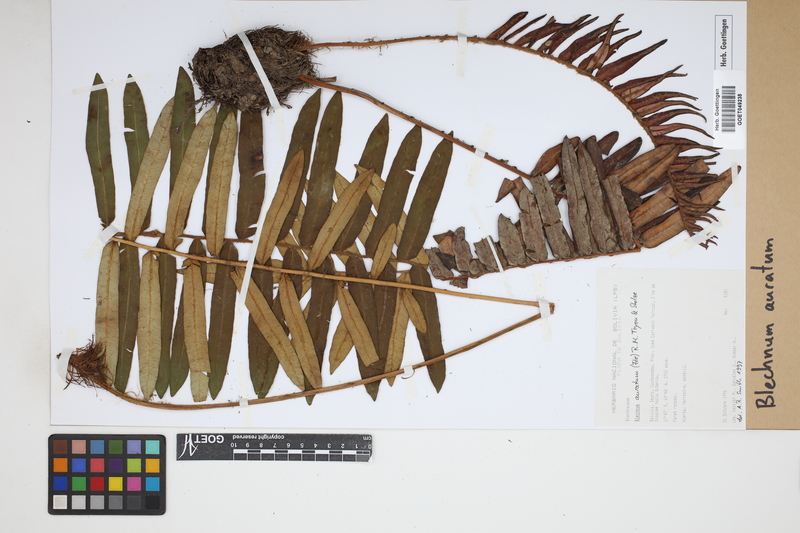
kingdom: Plantae
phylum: Tracheophyta
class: Polypodiopsida
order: Polypodiales
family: Blechnaceae
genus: Lomariocycas
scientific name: Lomariocycas aurata
